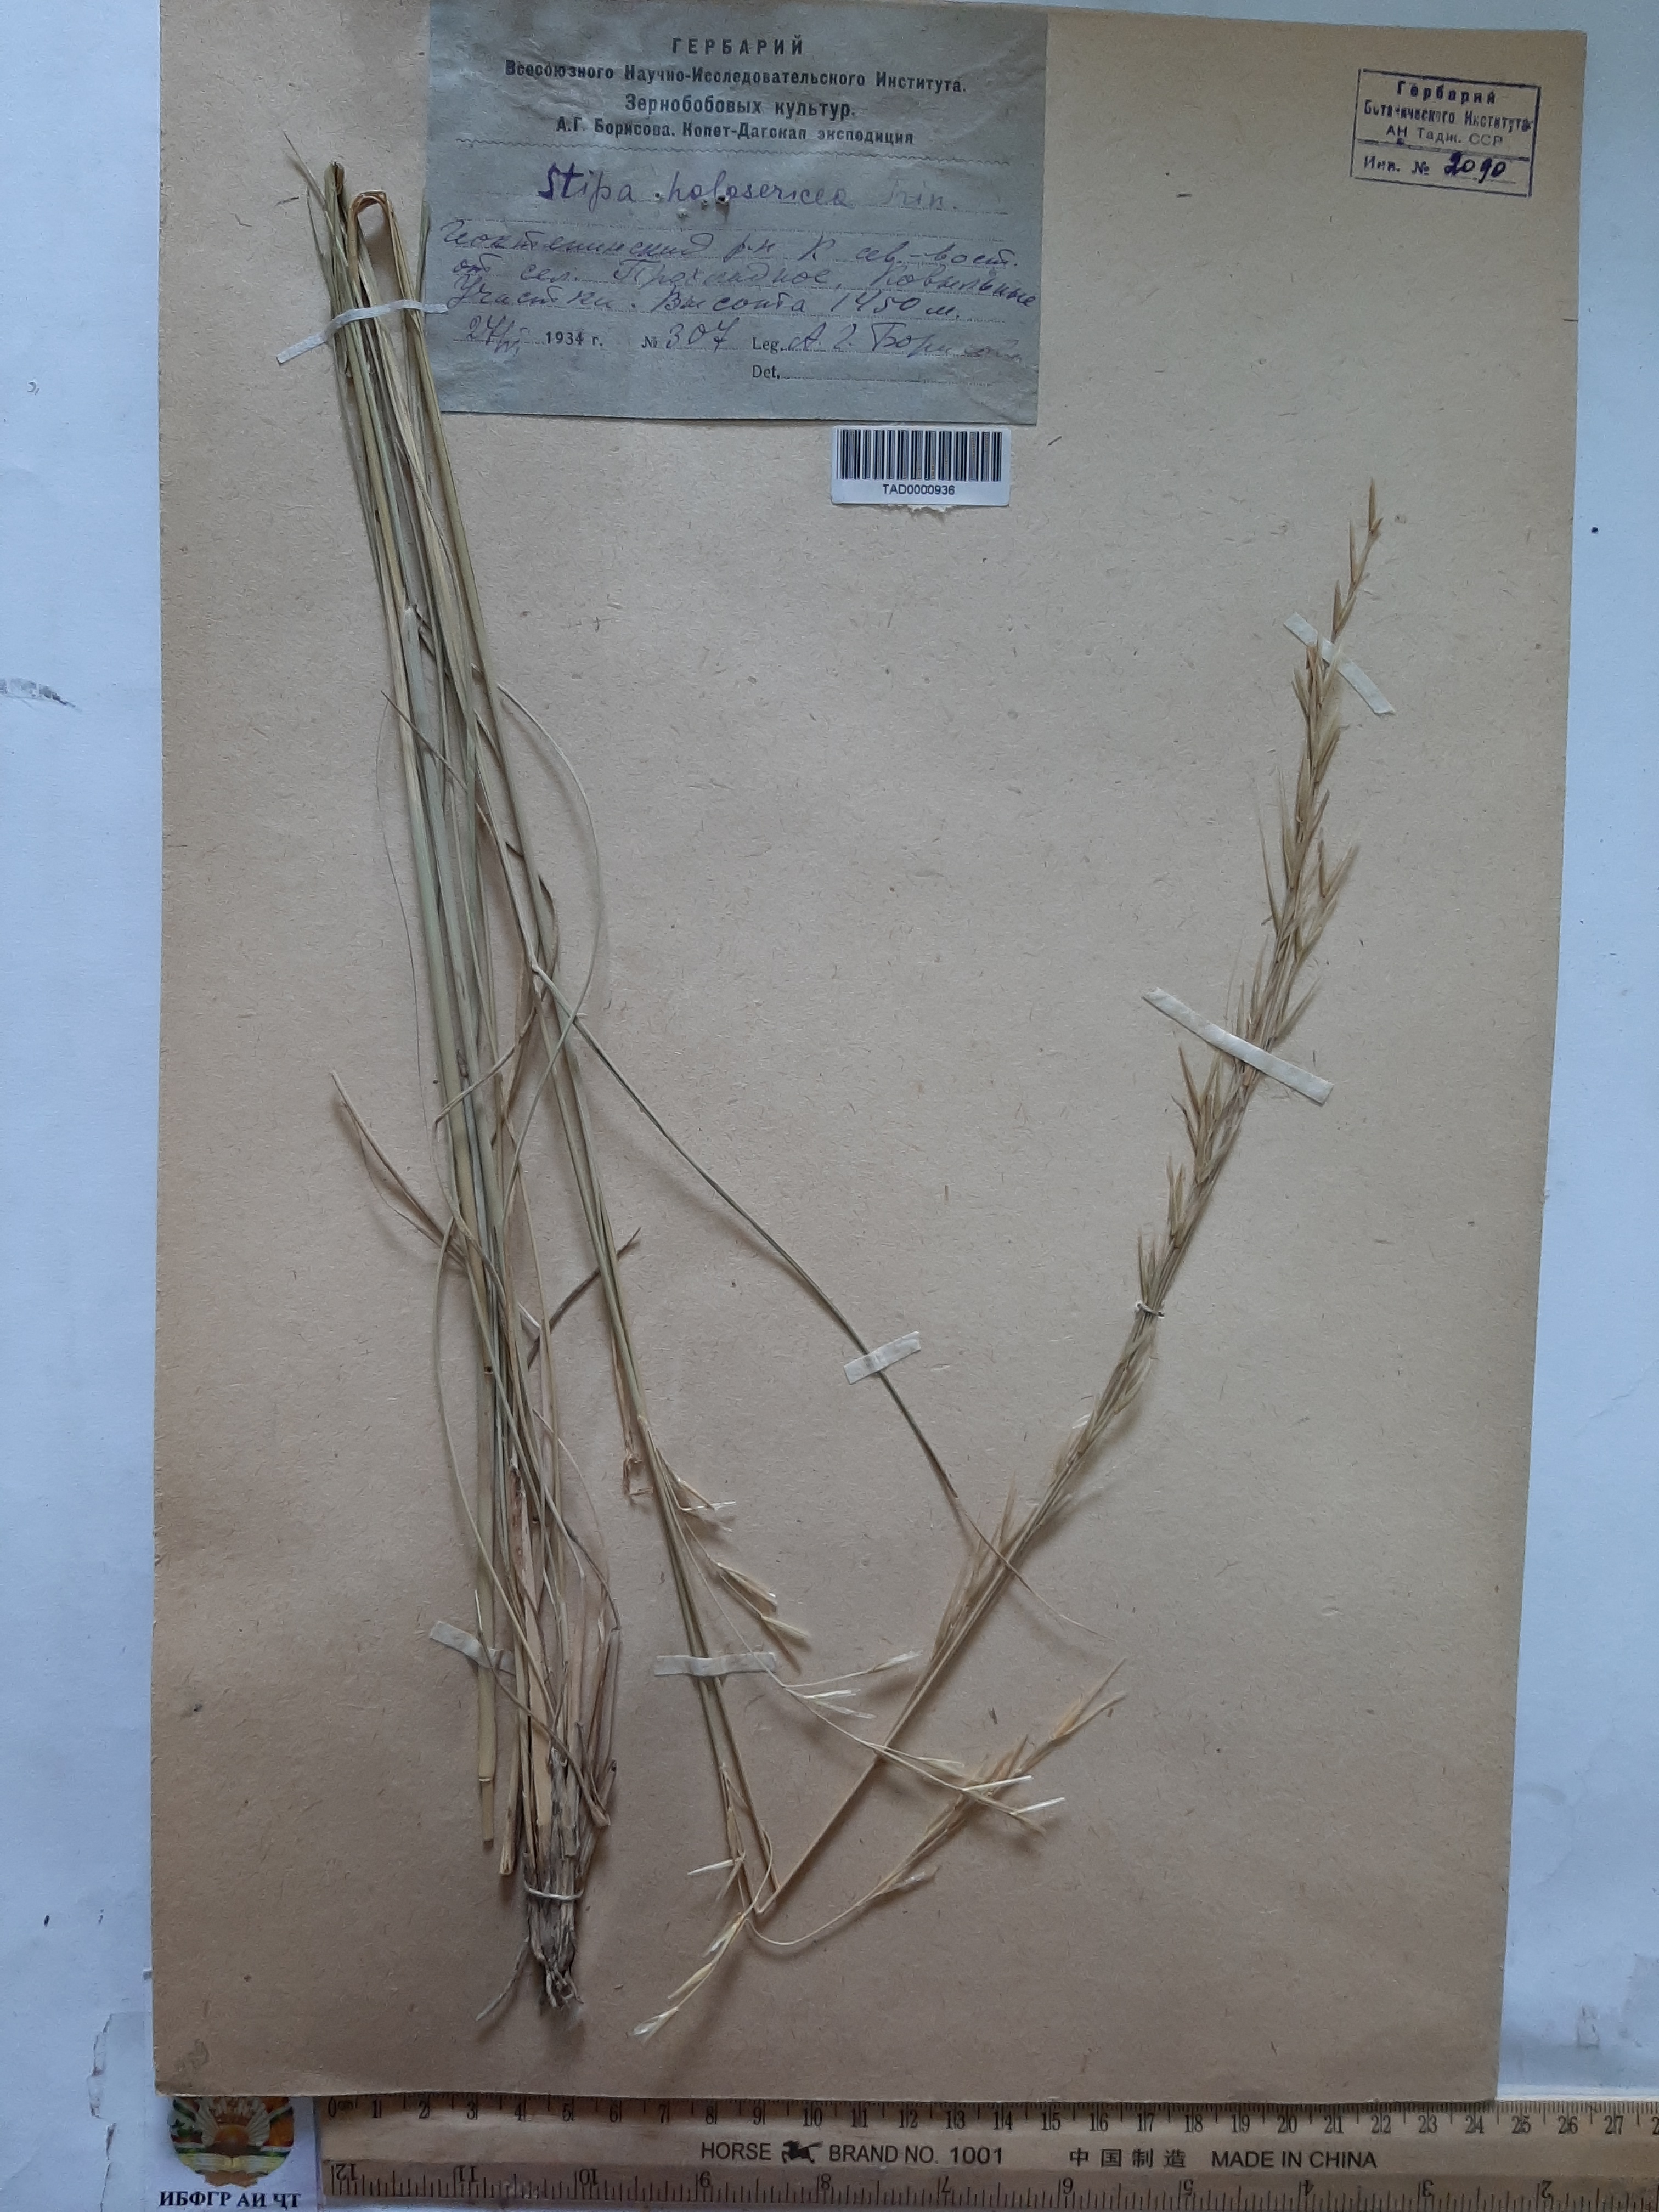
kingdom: Plantae
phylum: Tracheophyta
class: Liliopsida
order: Poales
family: Poaceae
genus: Stipa
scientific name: Stipa holosericea
